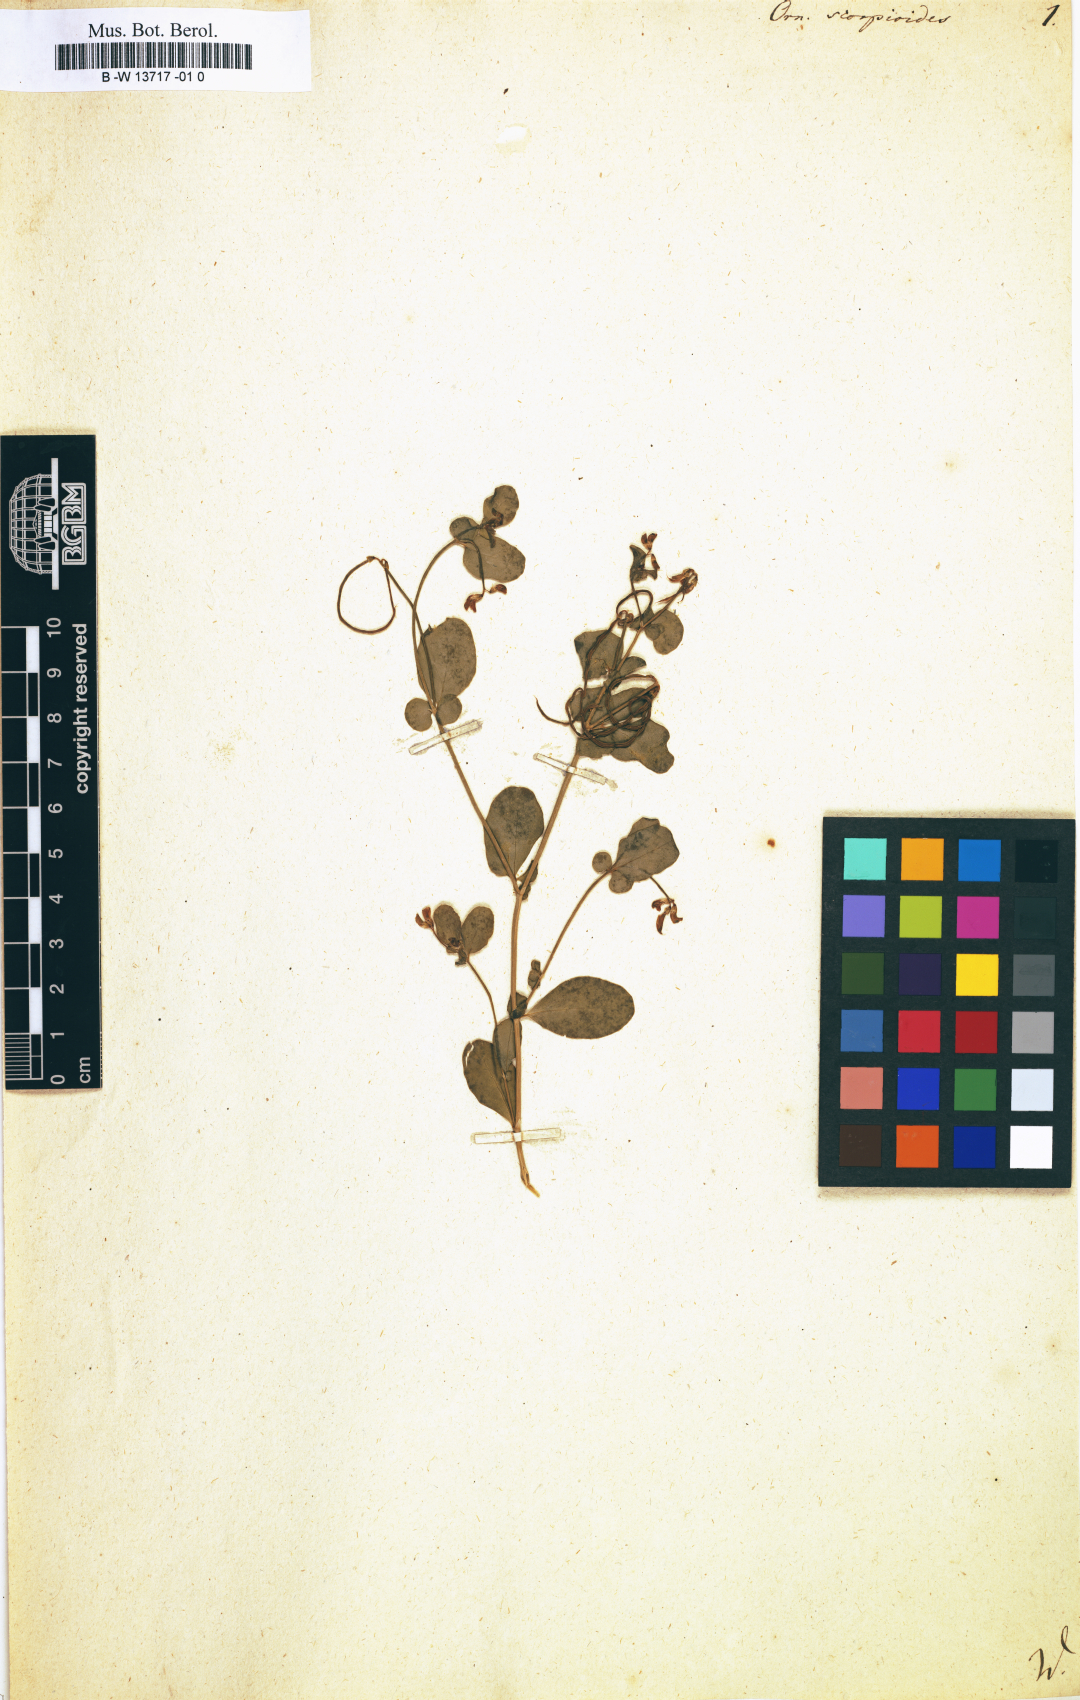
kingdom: Plantae
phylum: Tracheophyta
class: Magnoliopsida
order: Fabales
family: Fabaceae
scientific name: Fabaceae
